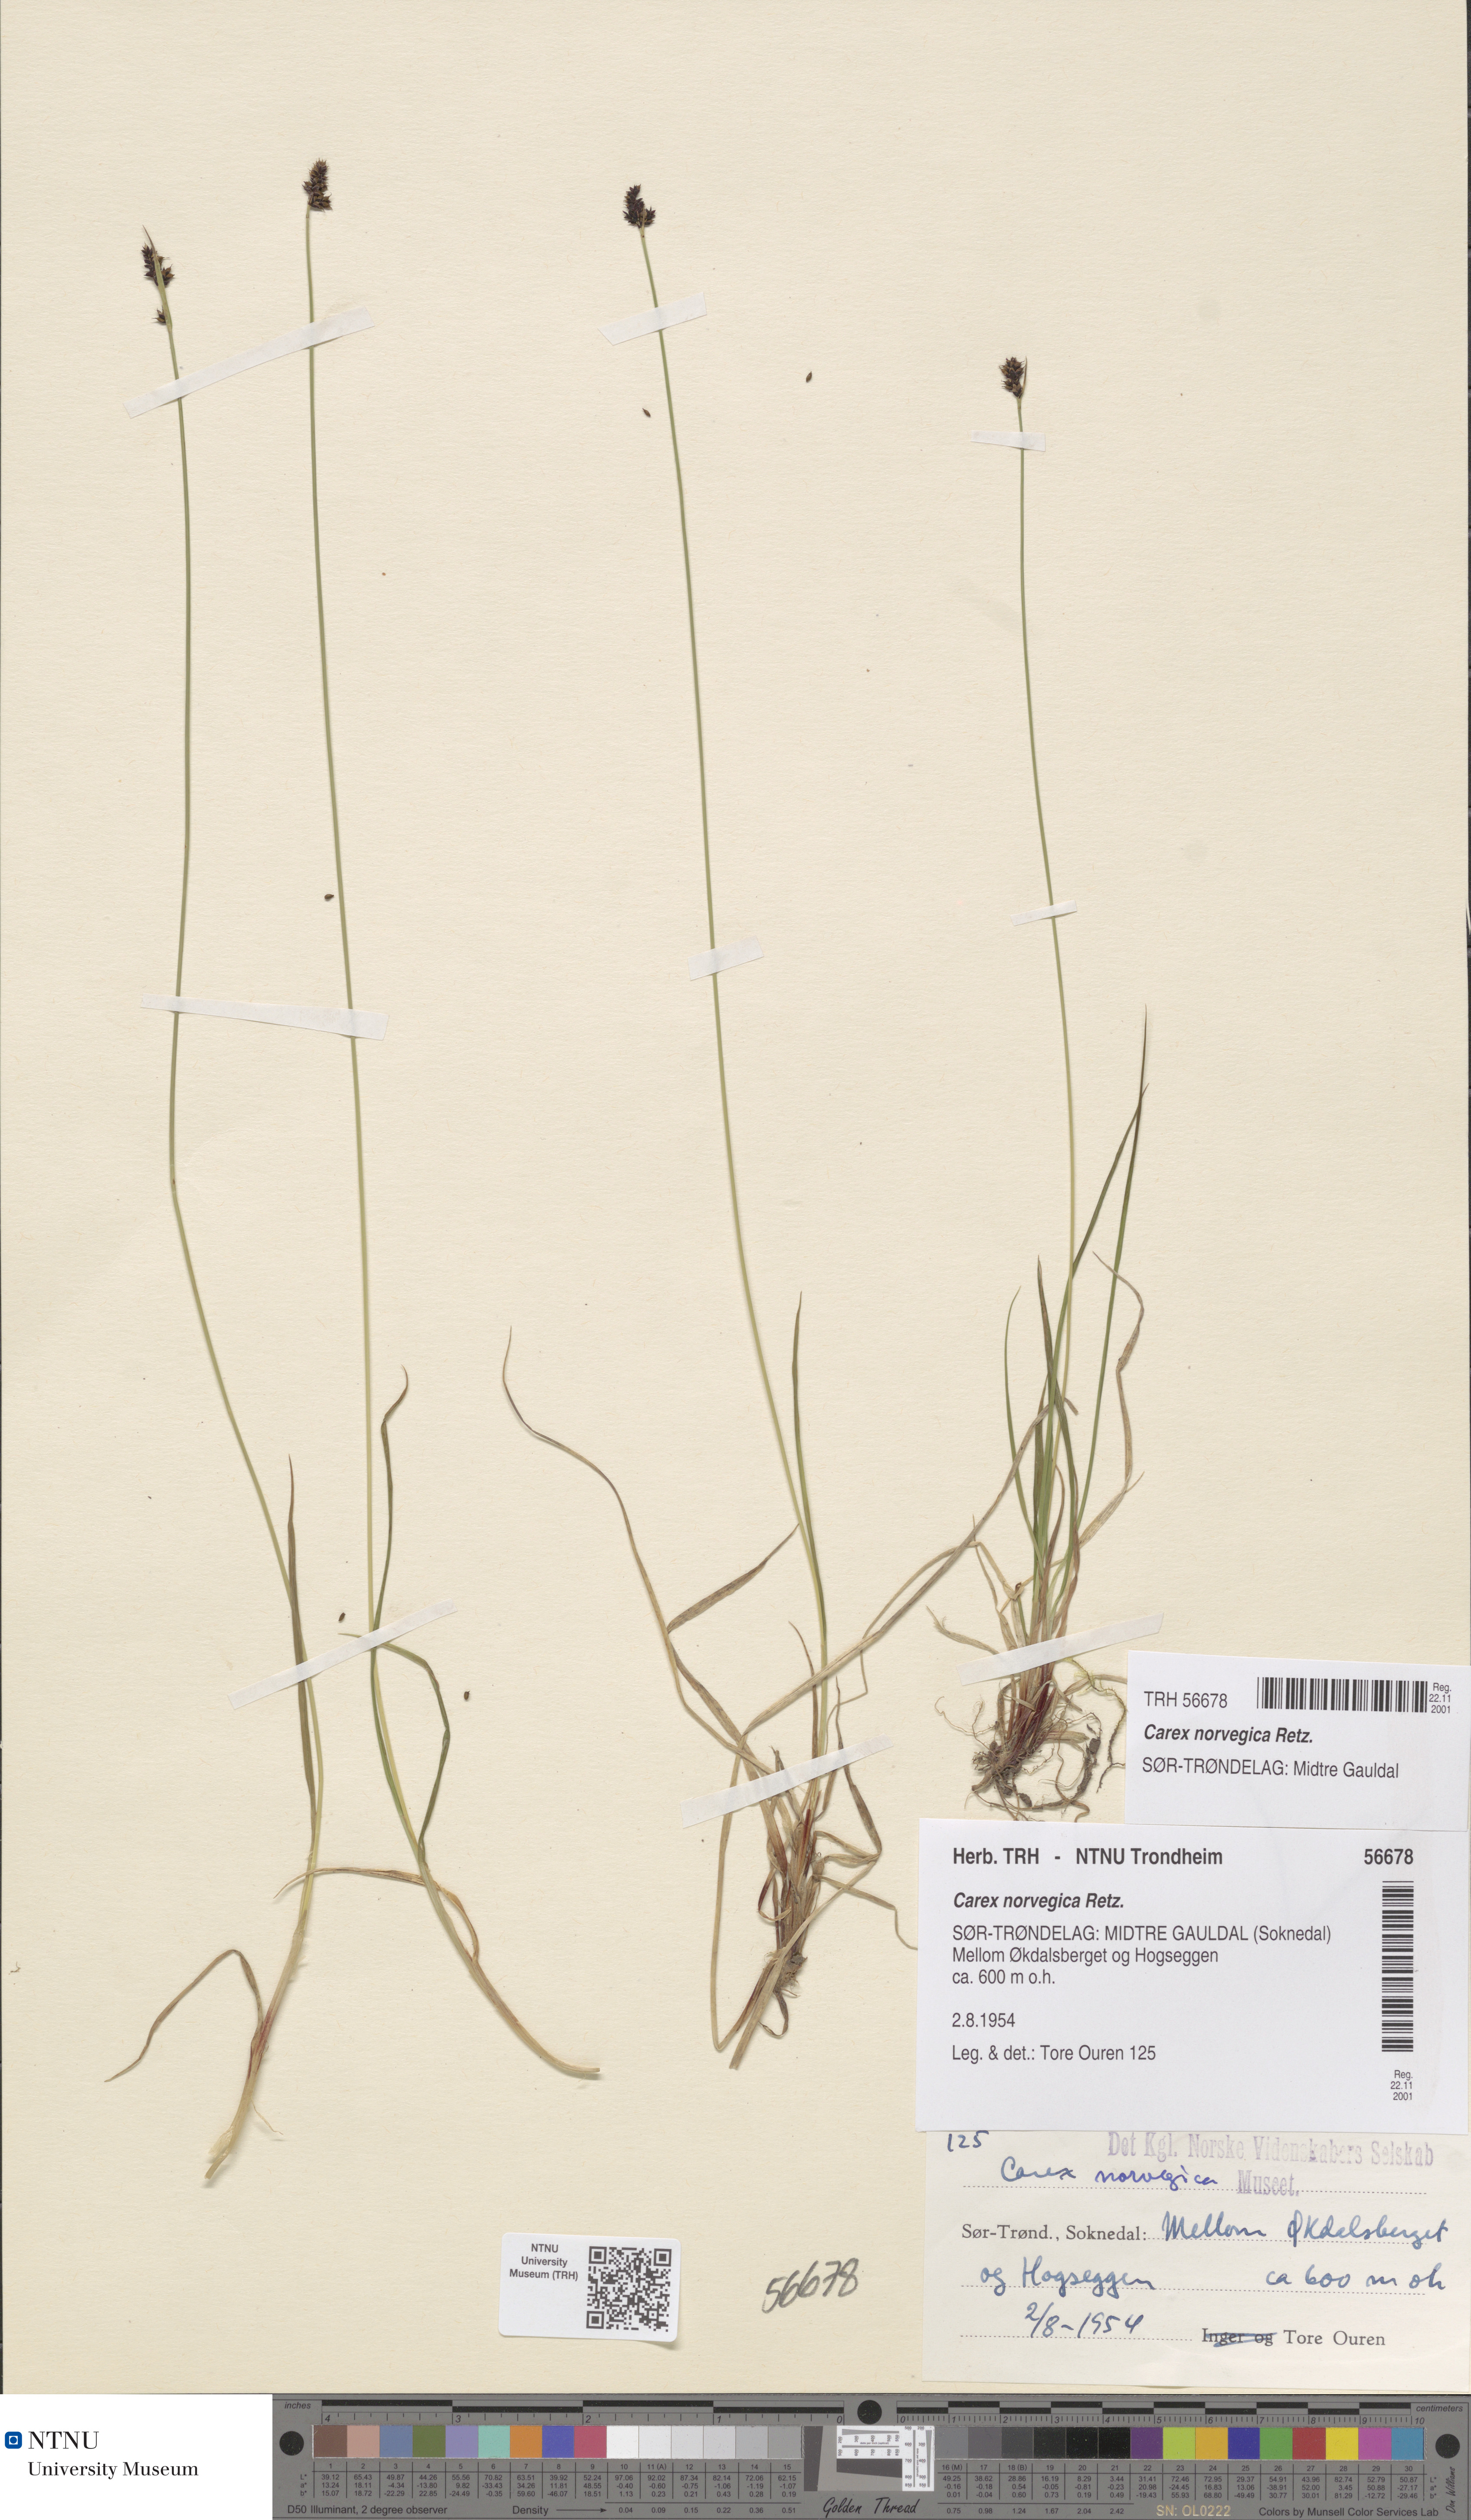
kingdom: Plantae
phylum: Tracheophyta
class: Liliopsida
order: Poales
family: Cyperaceae
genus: Carex
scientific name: Carex norvegica
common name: Close-headed alpine-sedge
